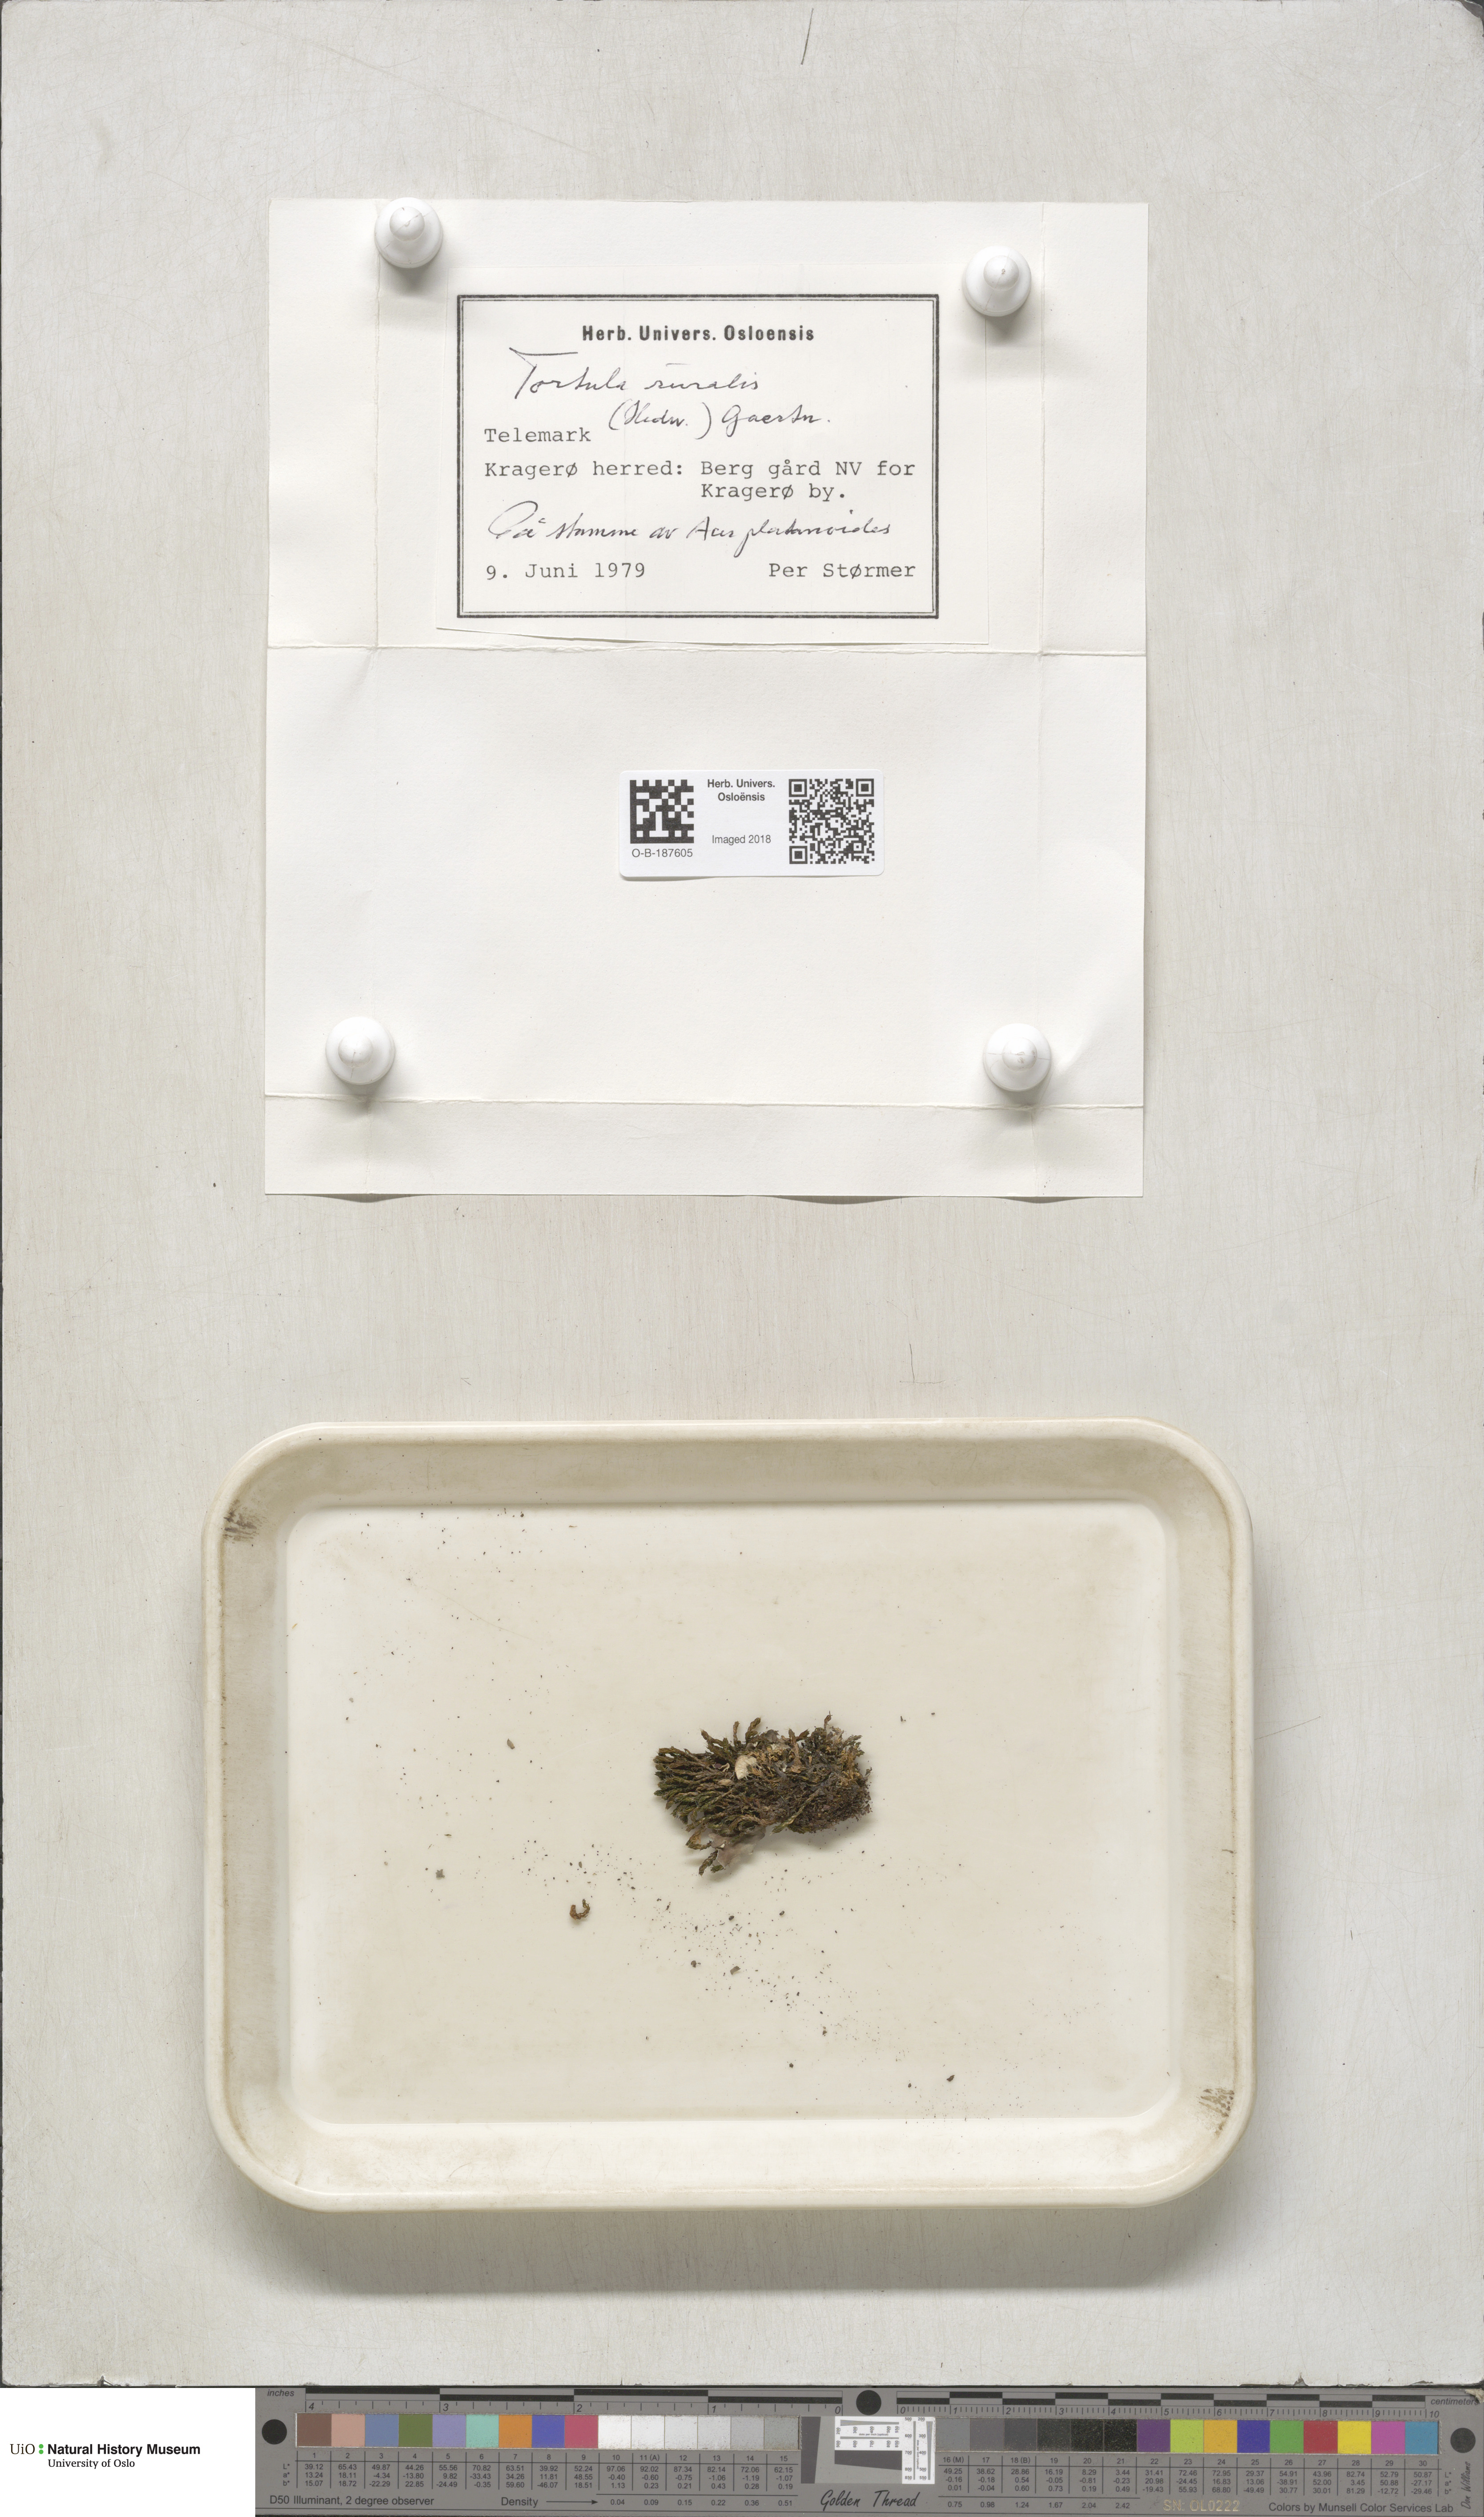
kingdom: Plantae
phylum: Bryophyta
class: Bryopsida
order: Pottiales
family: Pottiaceae
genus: Syntrichia
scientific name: Syntrichia ruralis
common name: Sidewalk screw moss
